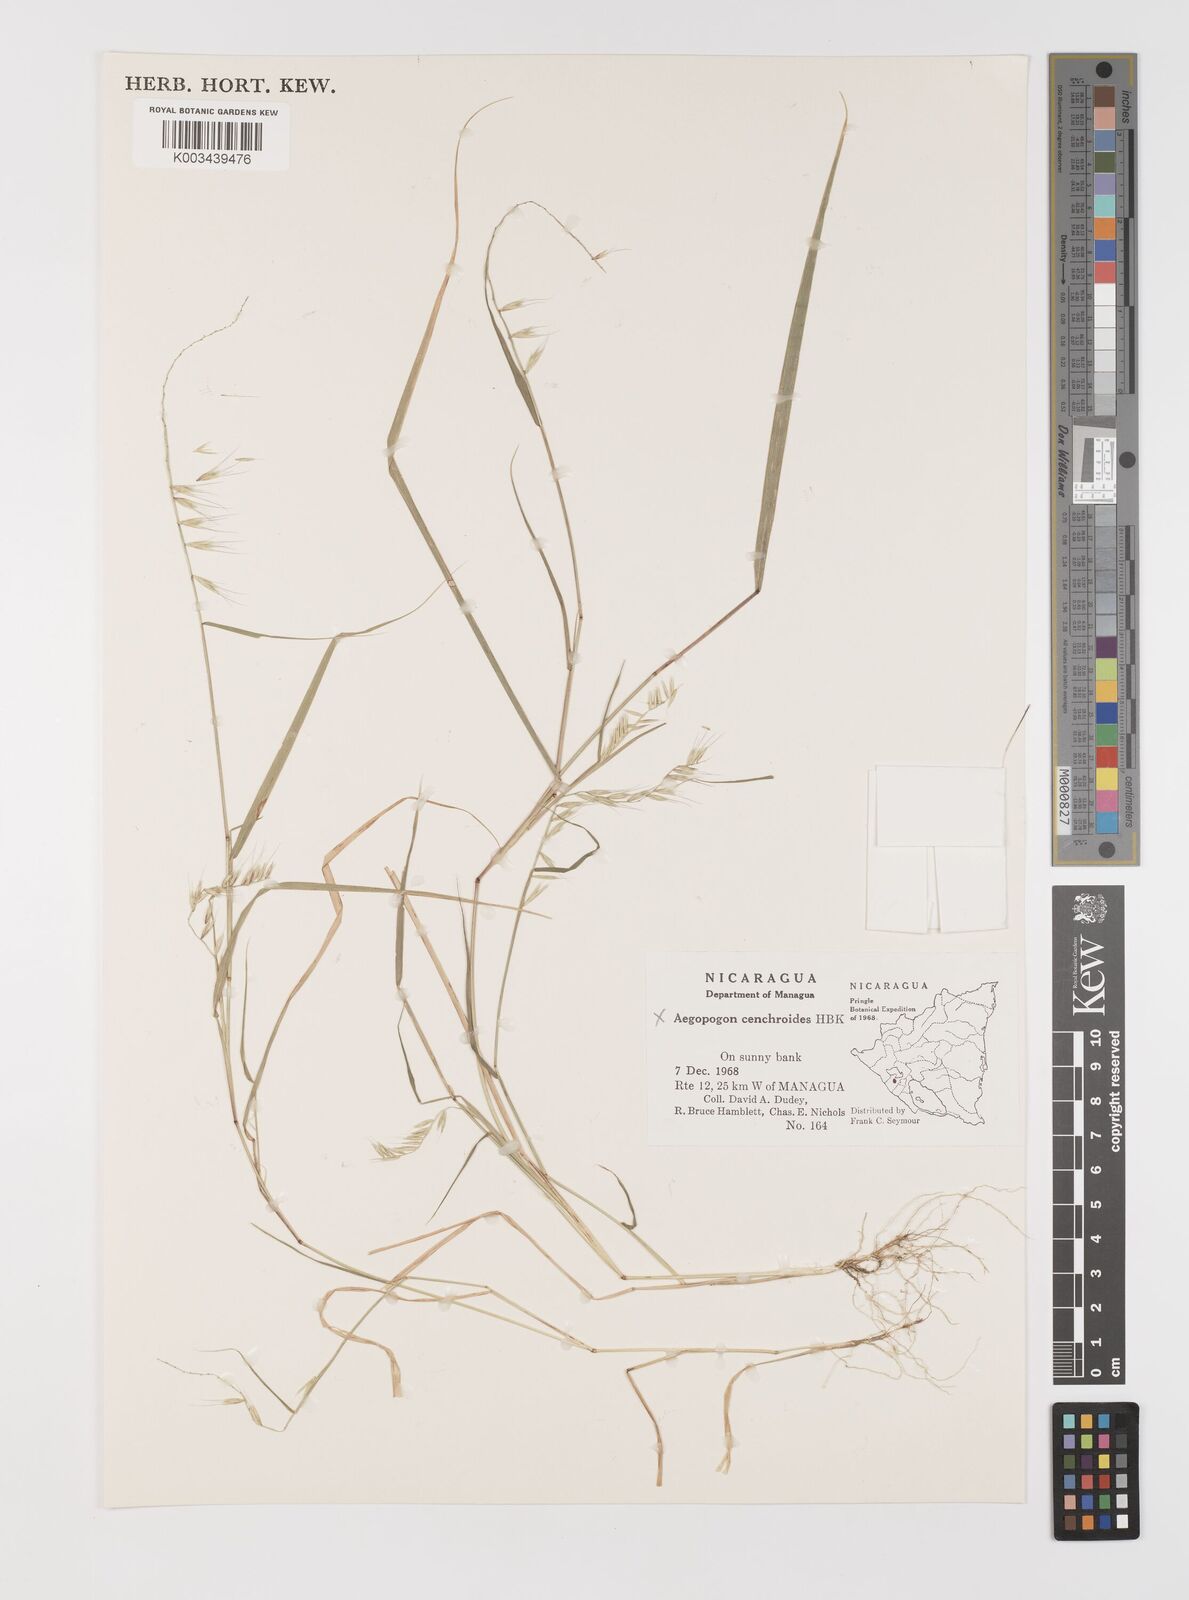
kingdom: Plantae
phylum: Tracheophyta
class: Liliopsida
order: Poales
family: Poaceae
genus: Bouteloua
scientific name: Bouteloua
